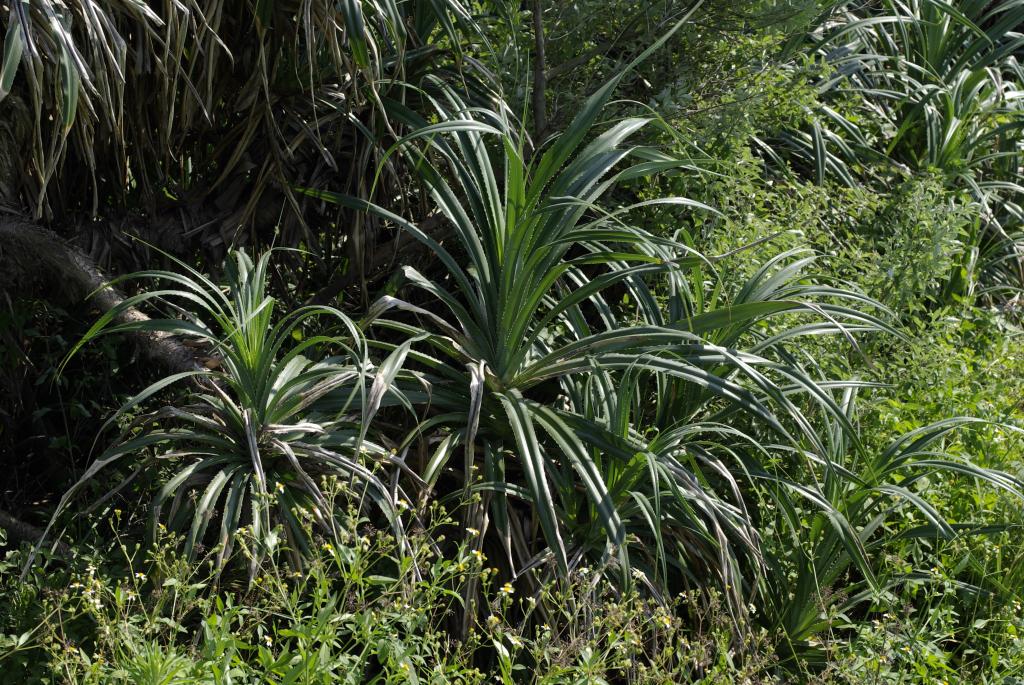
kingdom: Plantae
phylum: Tracheophyta
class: Liliopsida
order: Pandanales
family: Pandanaceae
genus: Pandanus
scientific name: Pandanus odorifer
